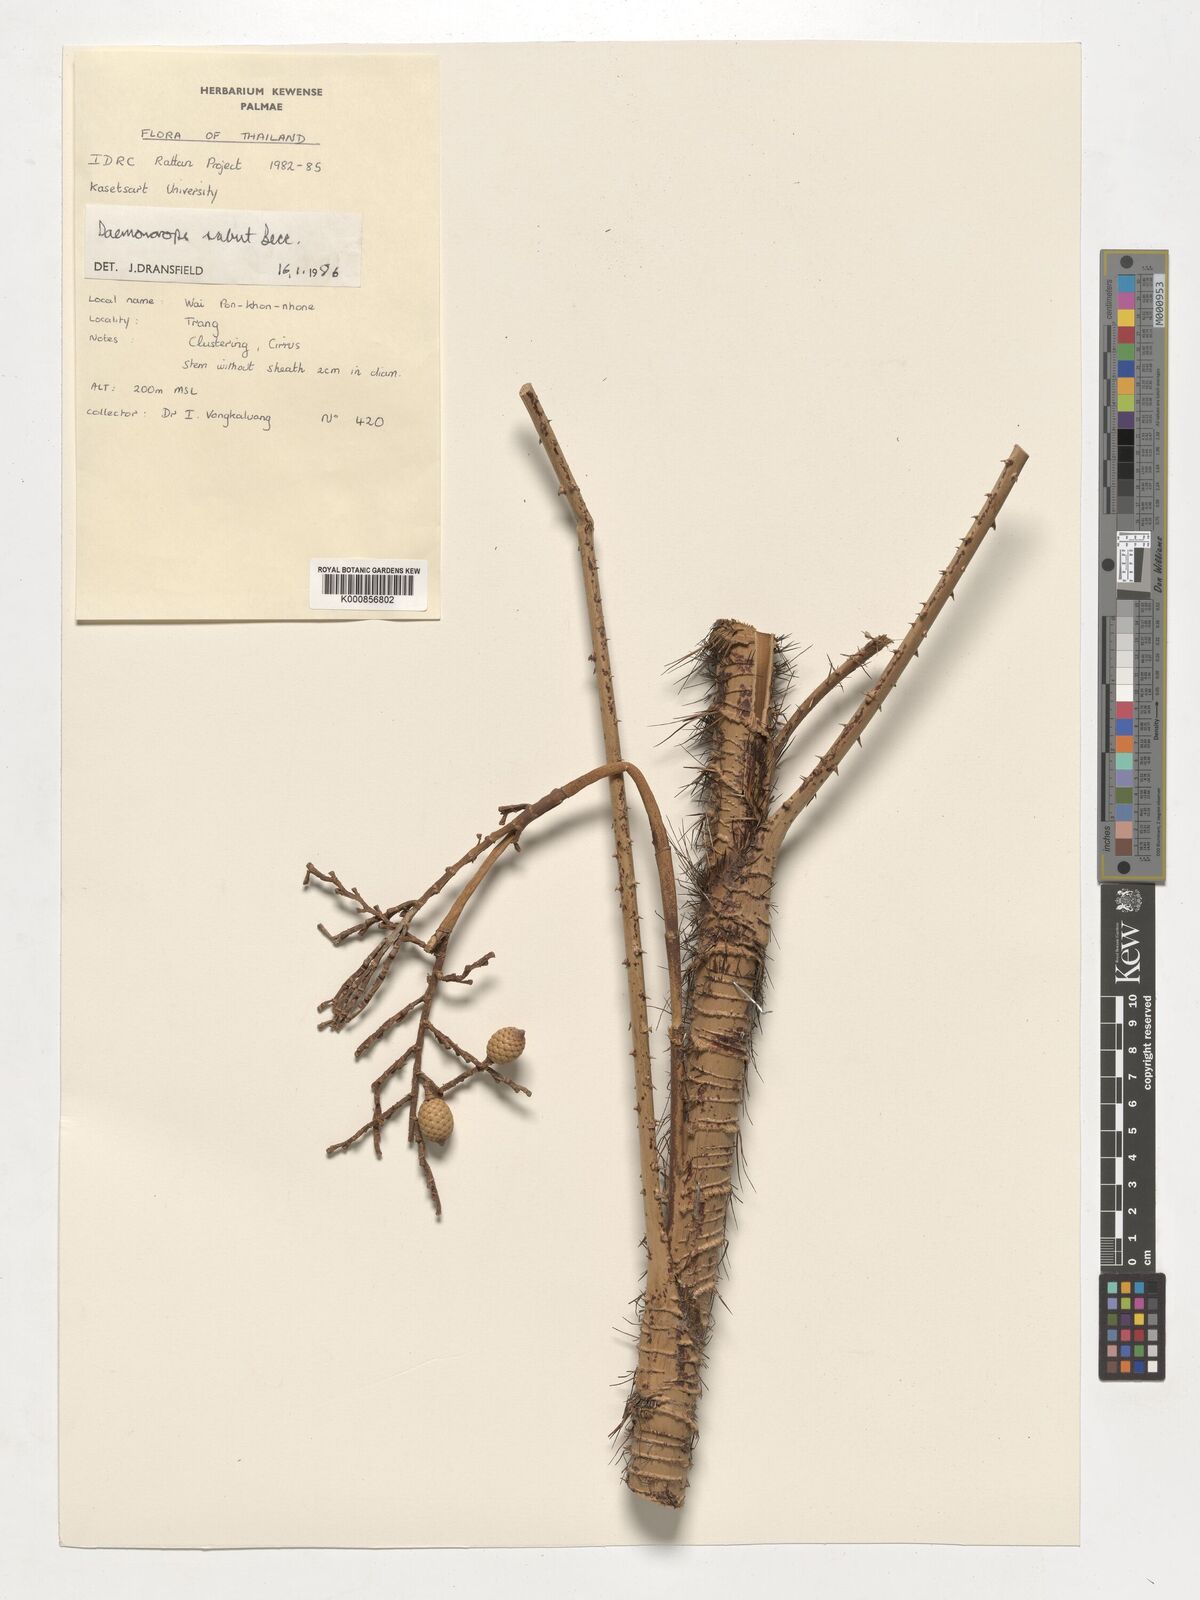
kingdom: Plantae
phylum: Tracheophyta
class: Liliopsida
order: Arecales
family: Arecaceae
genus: Calamus
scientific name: Calamus crinitus
